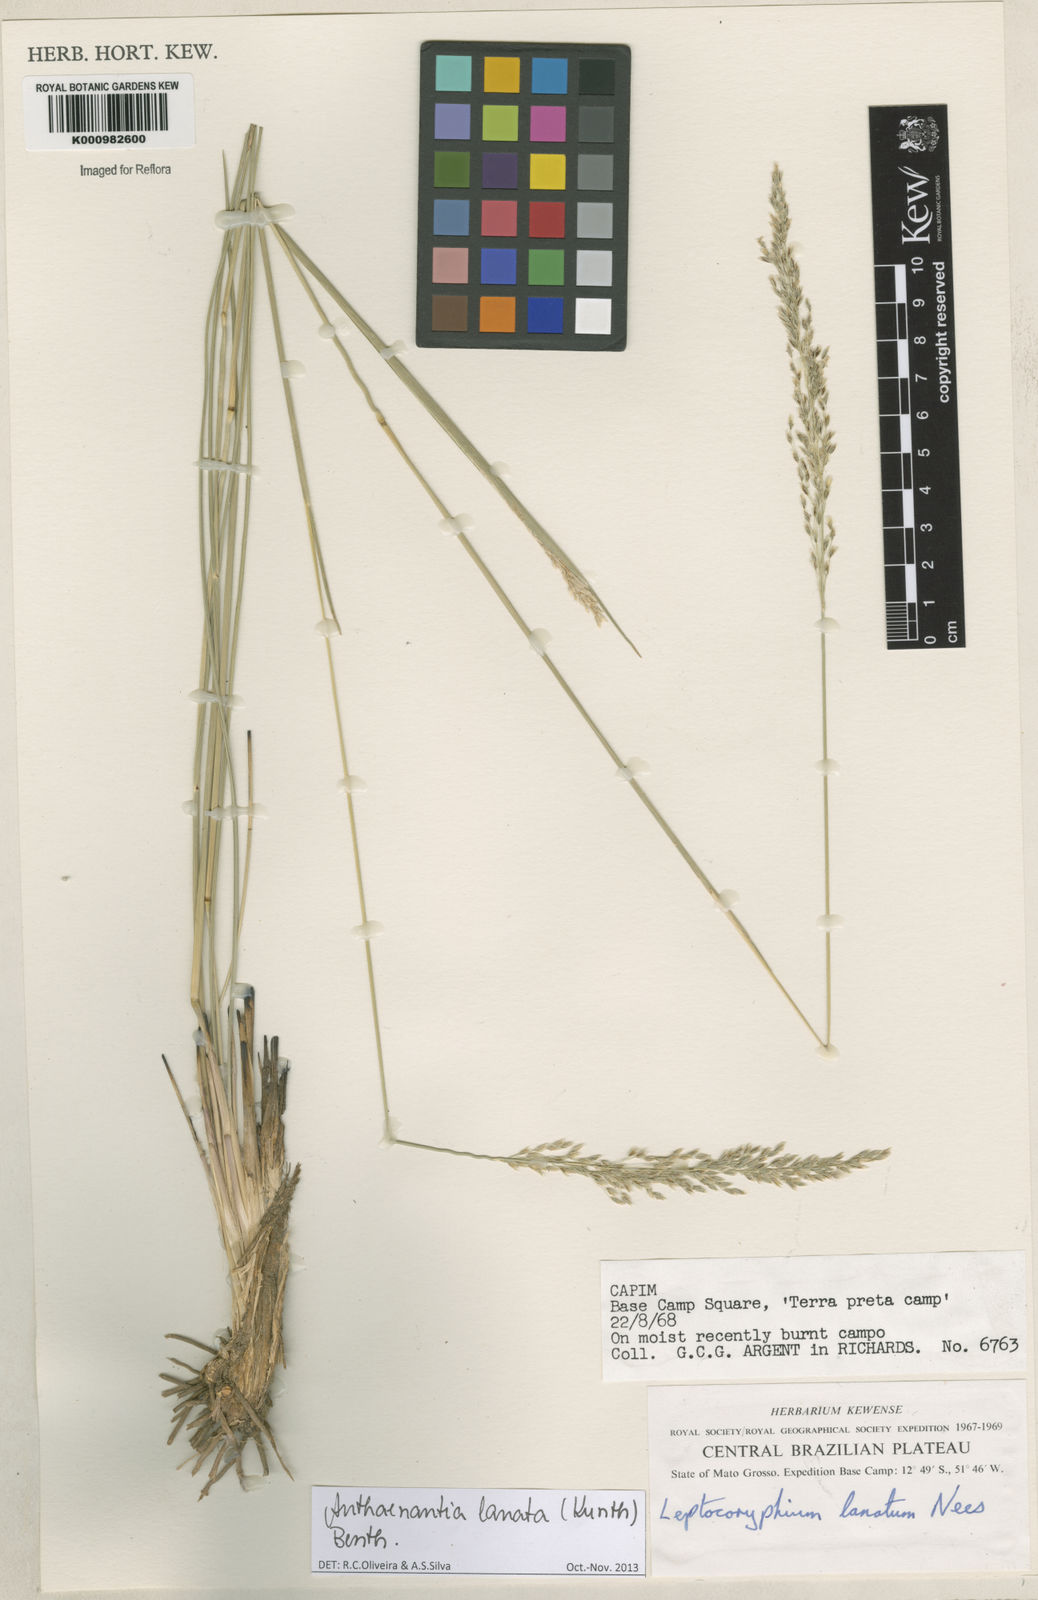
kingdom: Plantae
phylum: Tracheophyta
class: Liliopsida
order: Poales
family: Poaceae
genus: Anthenantia
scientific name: Anthenantia lanata
